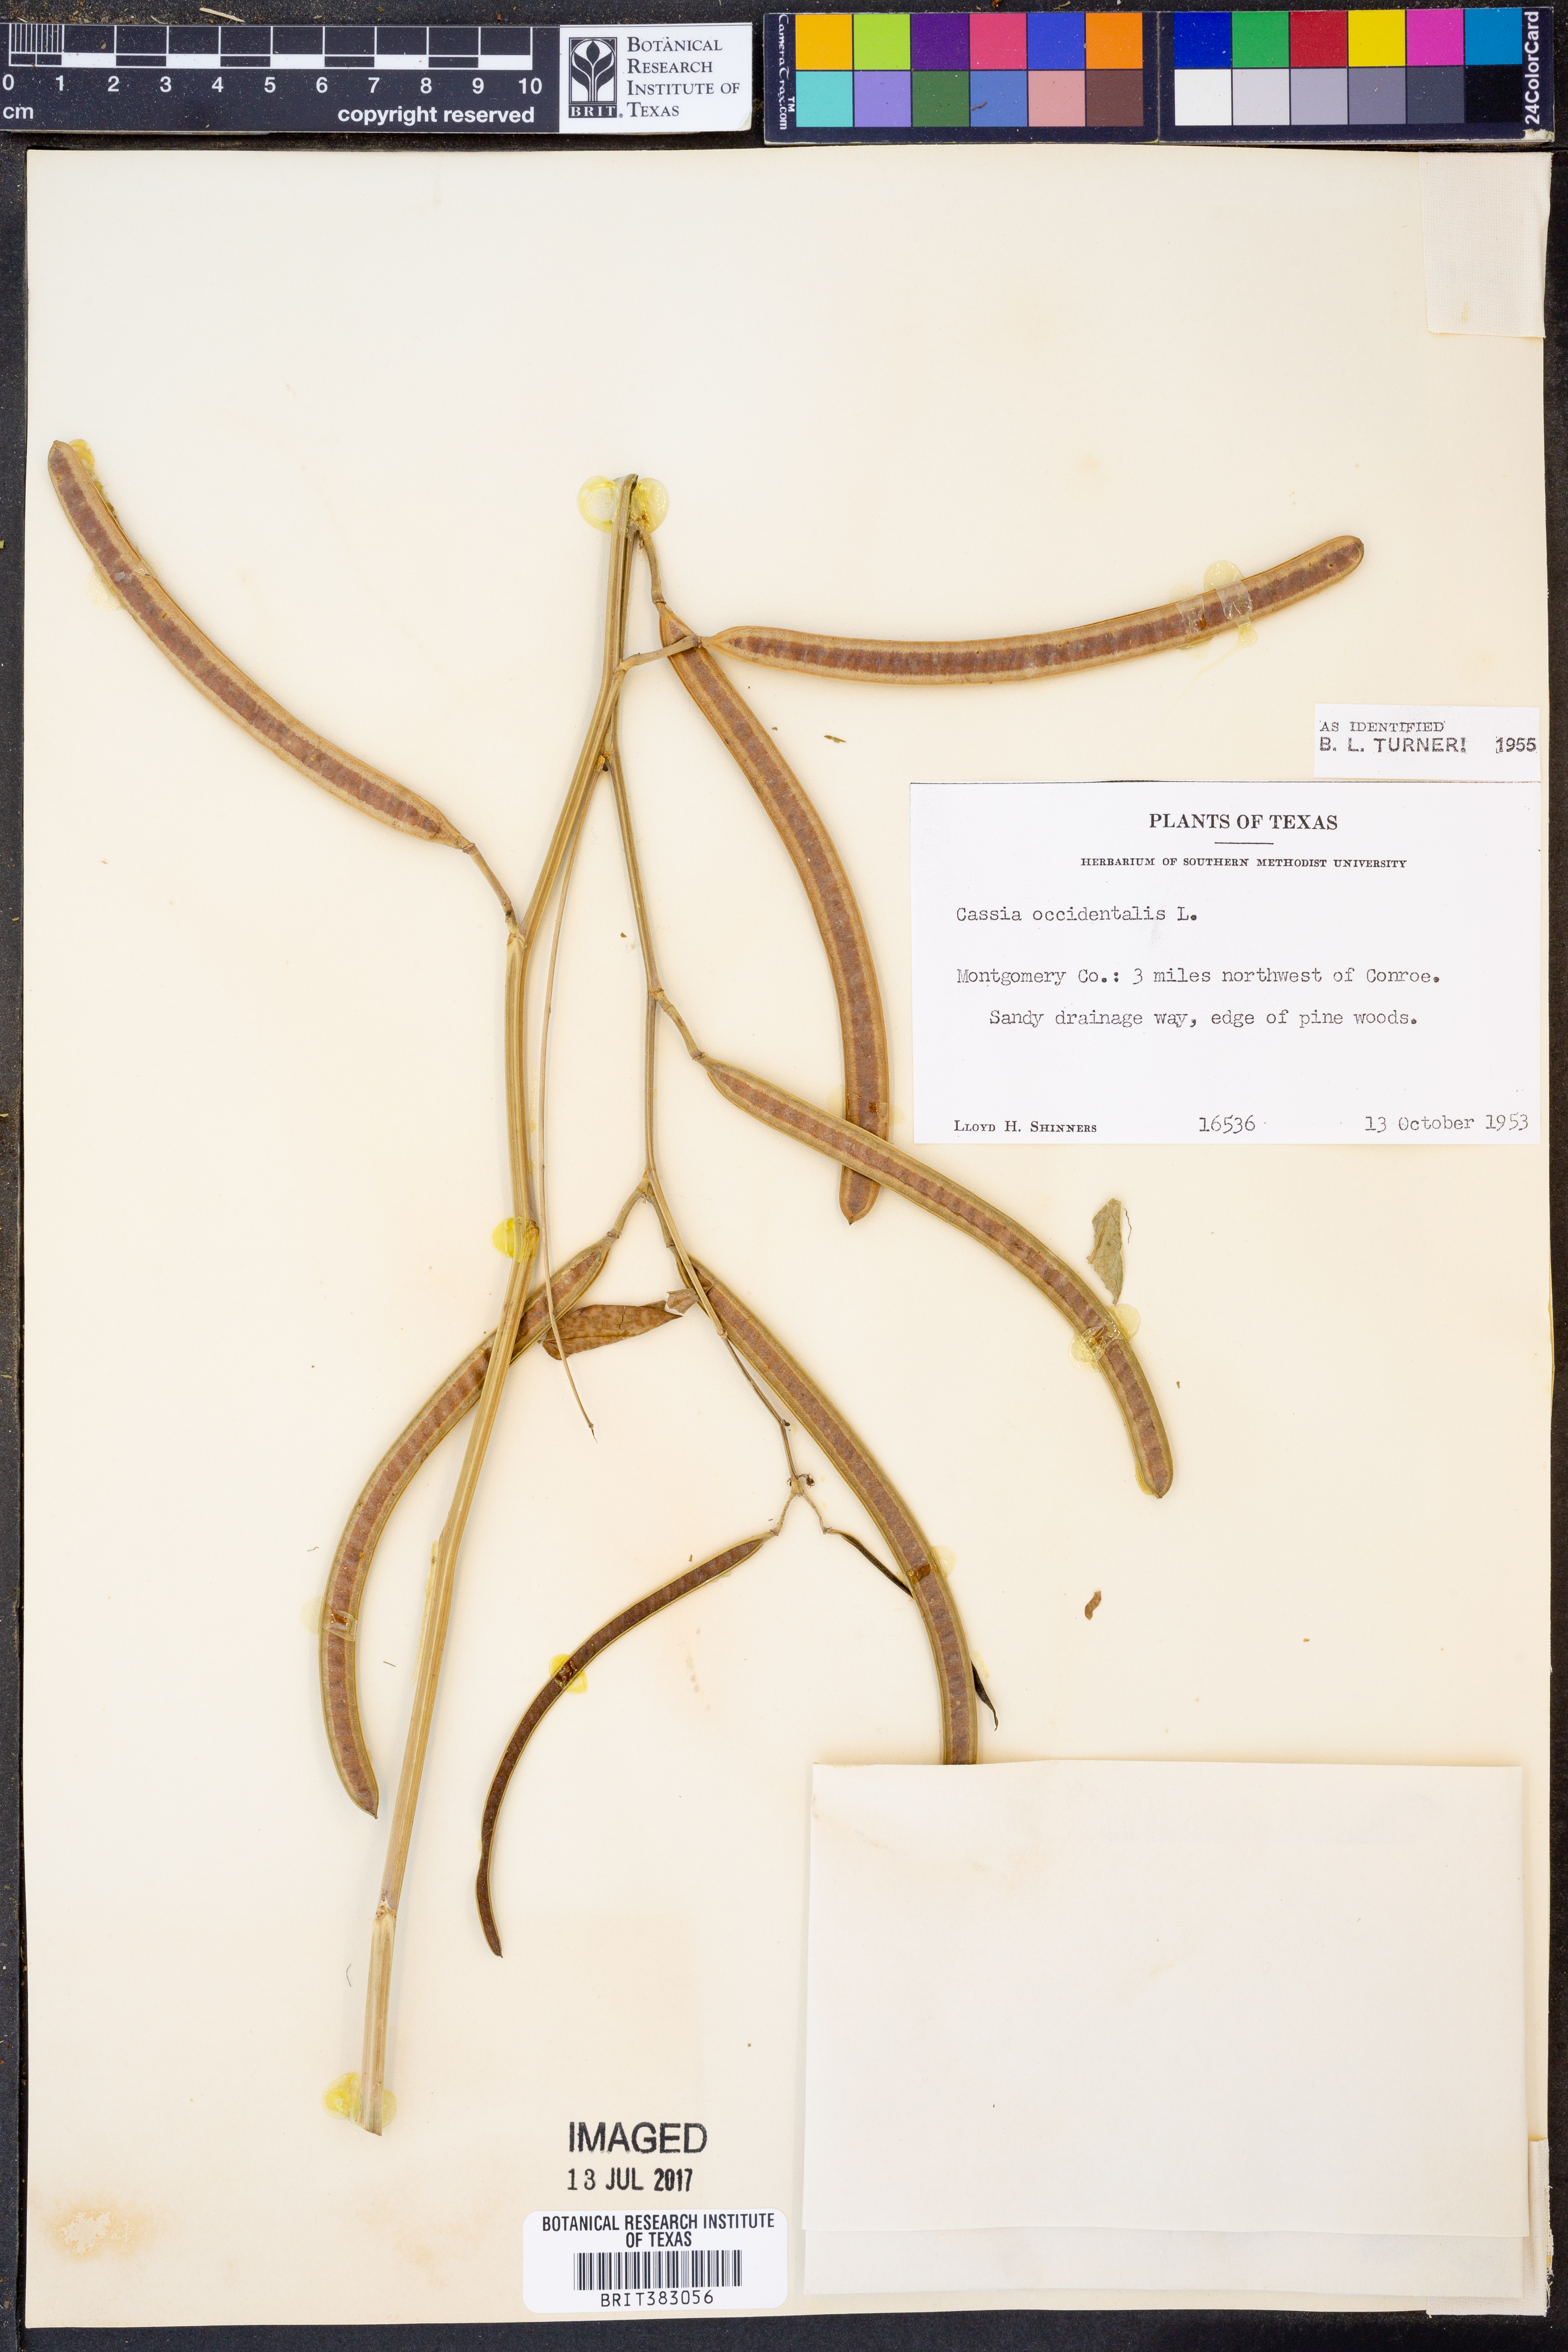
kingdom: Plantae
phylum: Tracheophyta
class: Magnoliopsida
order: Fabales
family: Fabaceae
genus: Senna
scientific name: Senna occidentalis
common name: Septicweed
